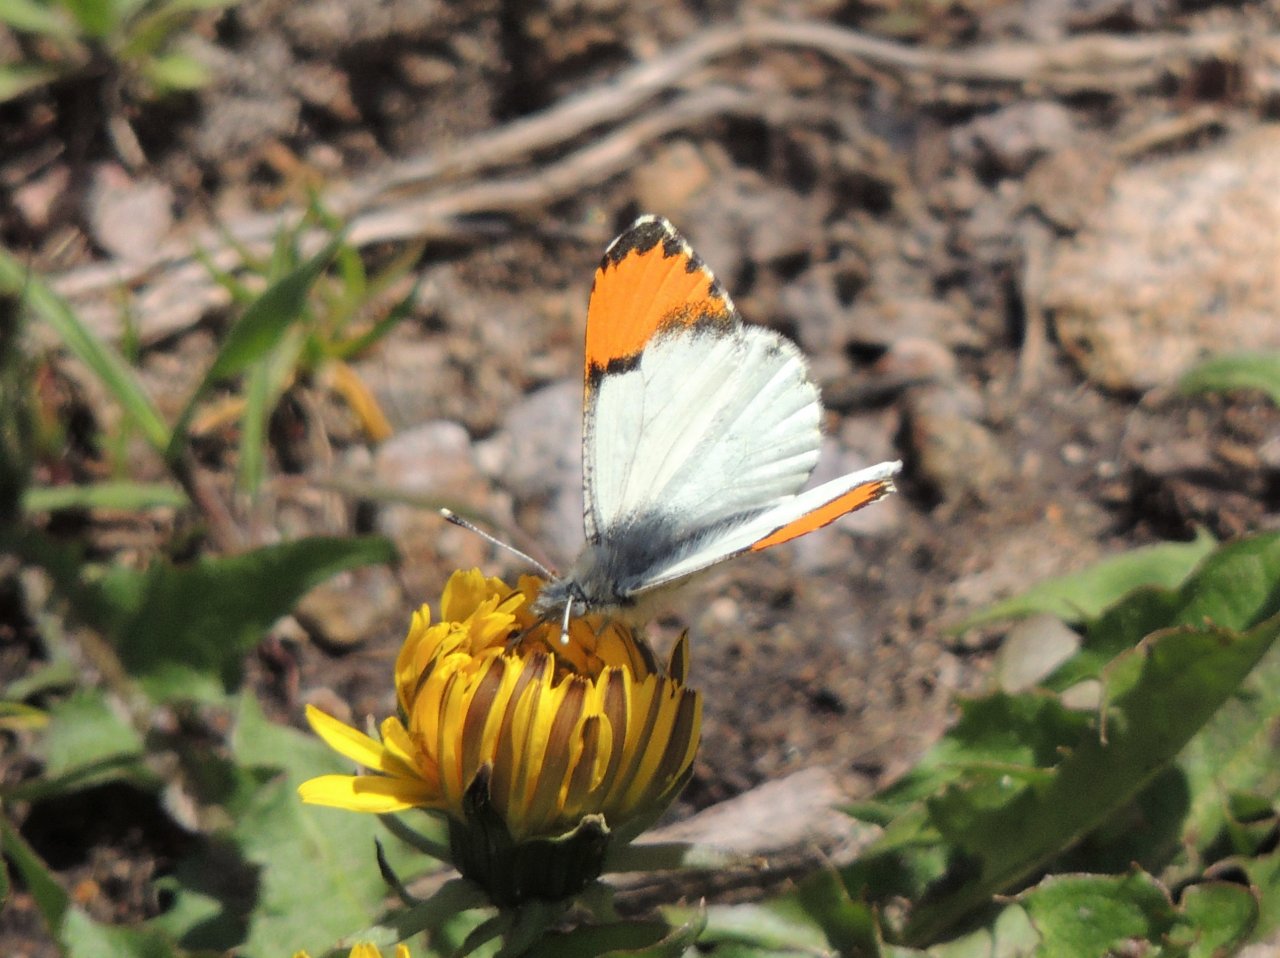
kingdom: Animalia
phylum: Arthropoda
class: Insecta
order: Lepidoptera
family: Pieridae
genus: Anthocharis
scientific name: Anthocharis sara
